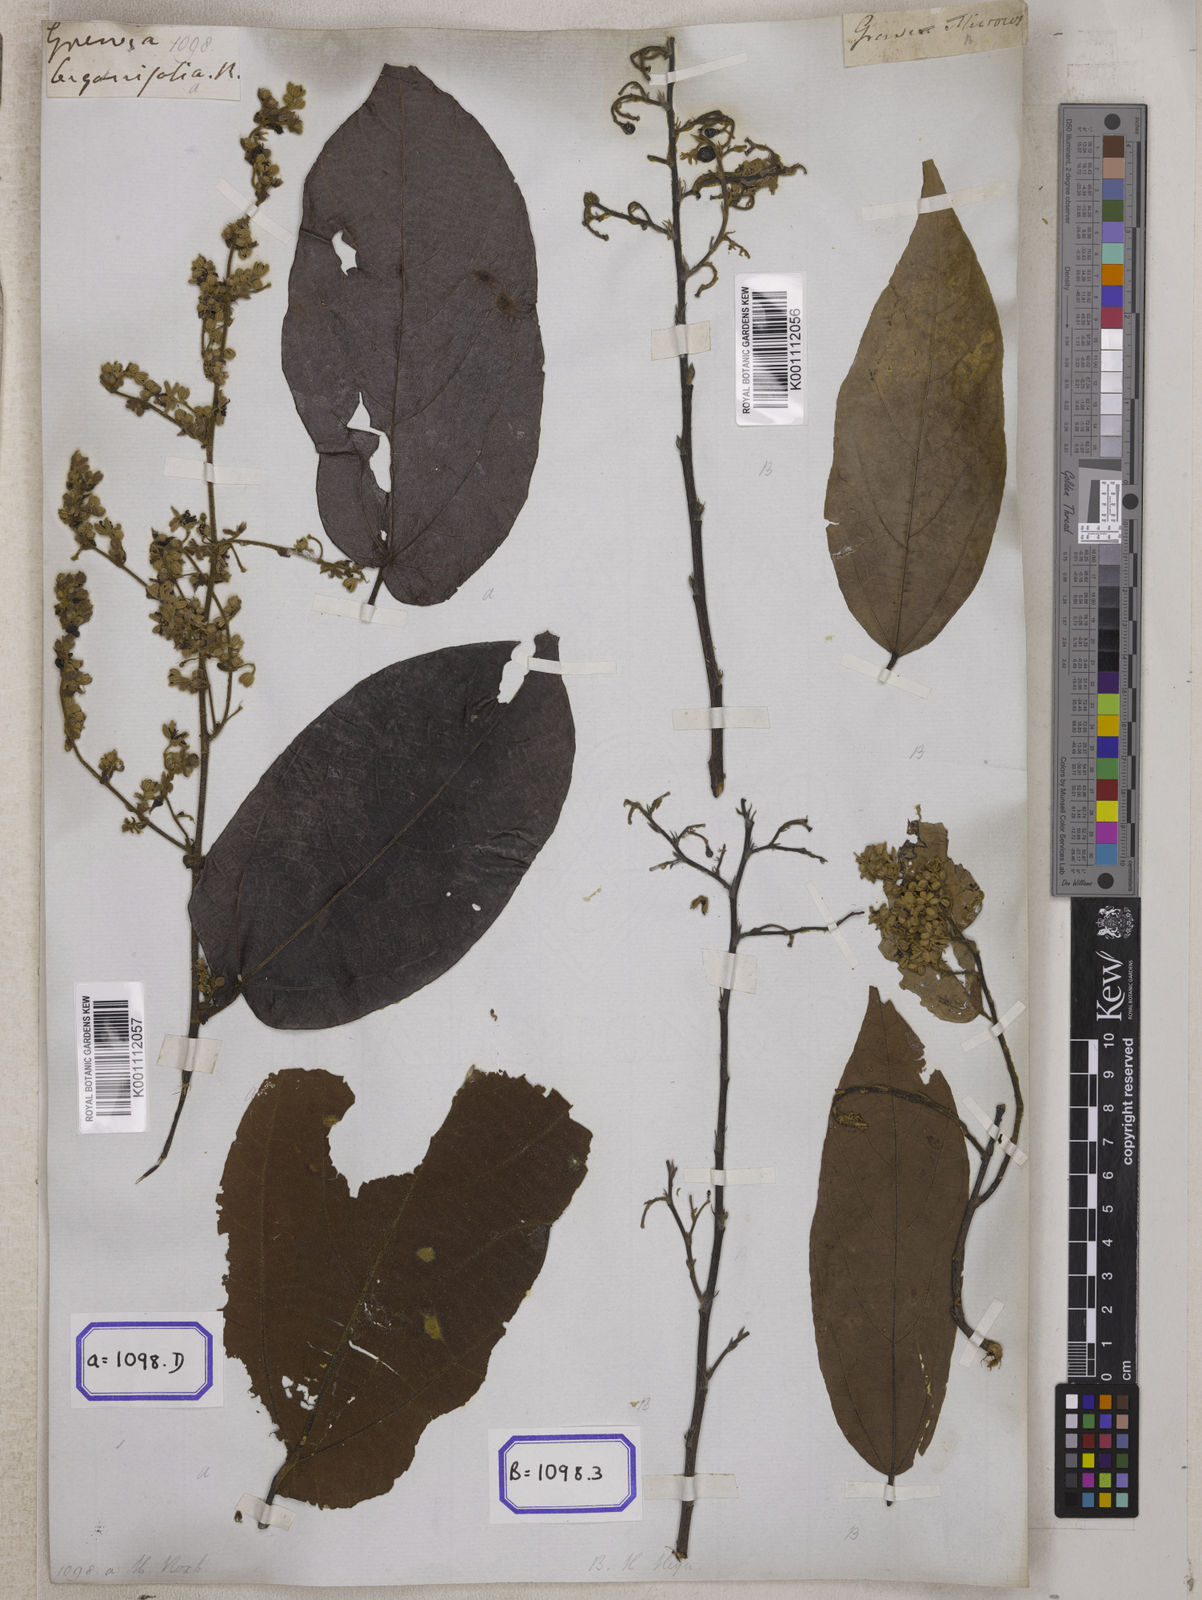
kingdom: Plantae
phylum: Tracheophyta
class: Magnoliopsida
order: Malvales
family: Malvaceae
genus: Microcos
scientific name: Microcos paniculata
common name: Microcos
